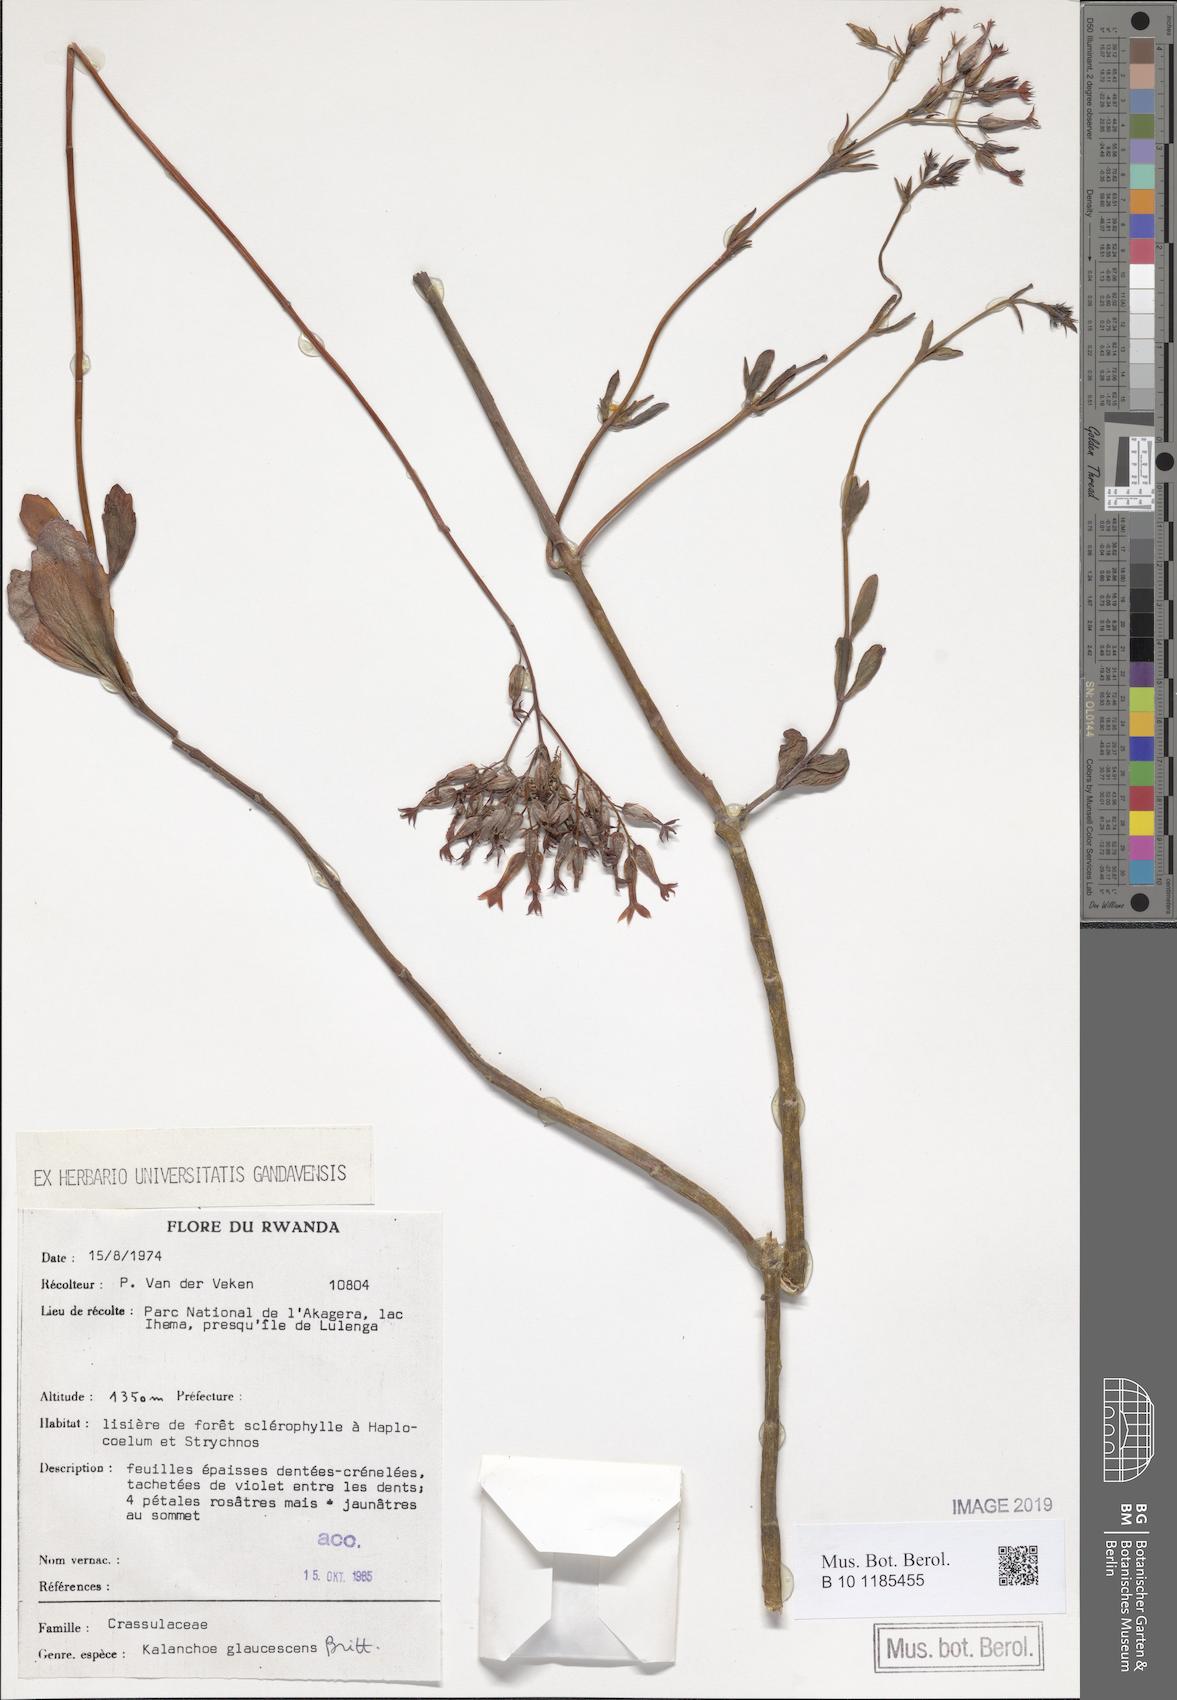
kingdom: Plantae
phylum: Tracheophyta
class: Magnoliopsida
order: Saxifragales
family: Crassulaceae
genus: Kalanchoe
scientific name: Kalanchoe glaucescens
